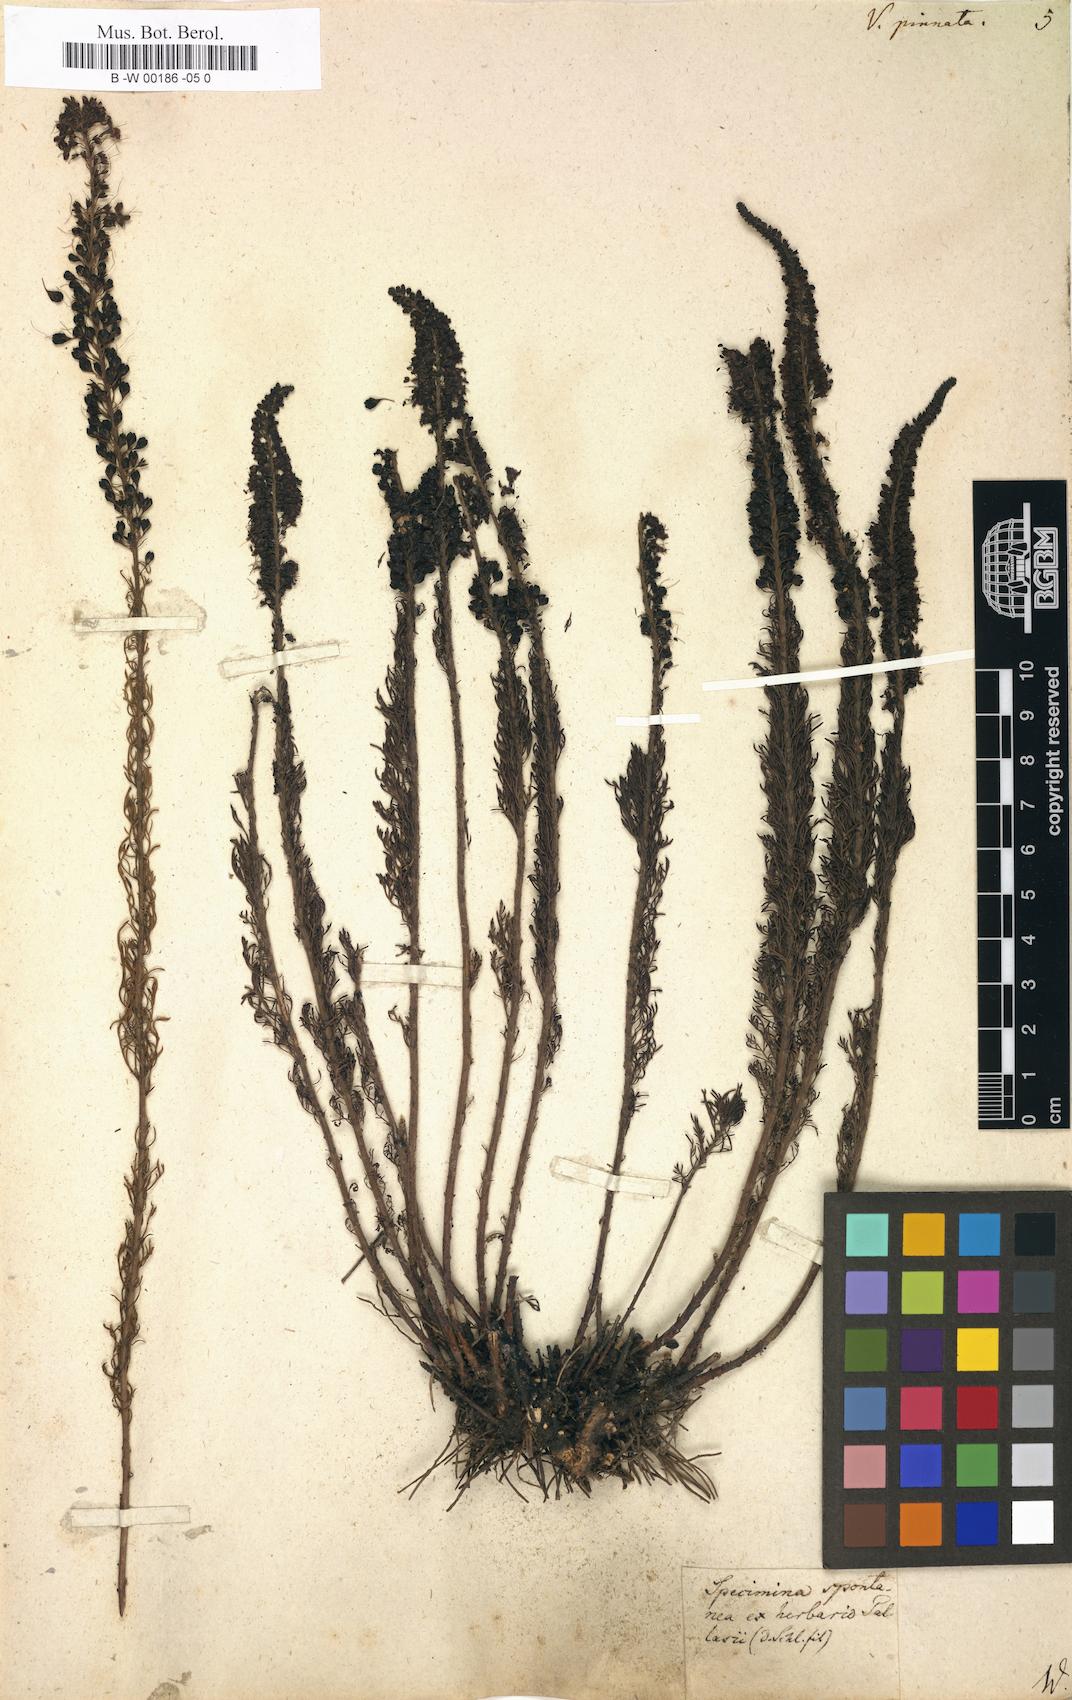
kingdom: Plantae
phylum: Tracheophyta
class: Magnoliopsida
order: Lamiales
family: Plantaginaceae
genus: Veronica
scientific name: Veronica pinnata
